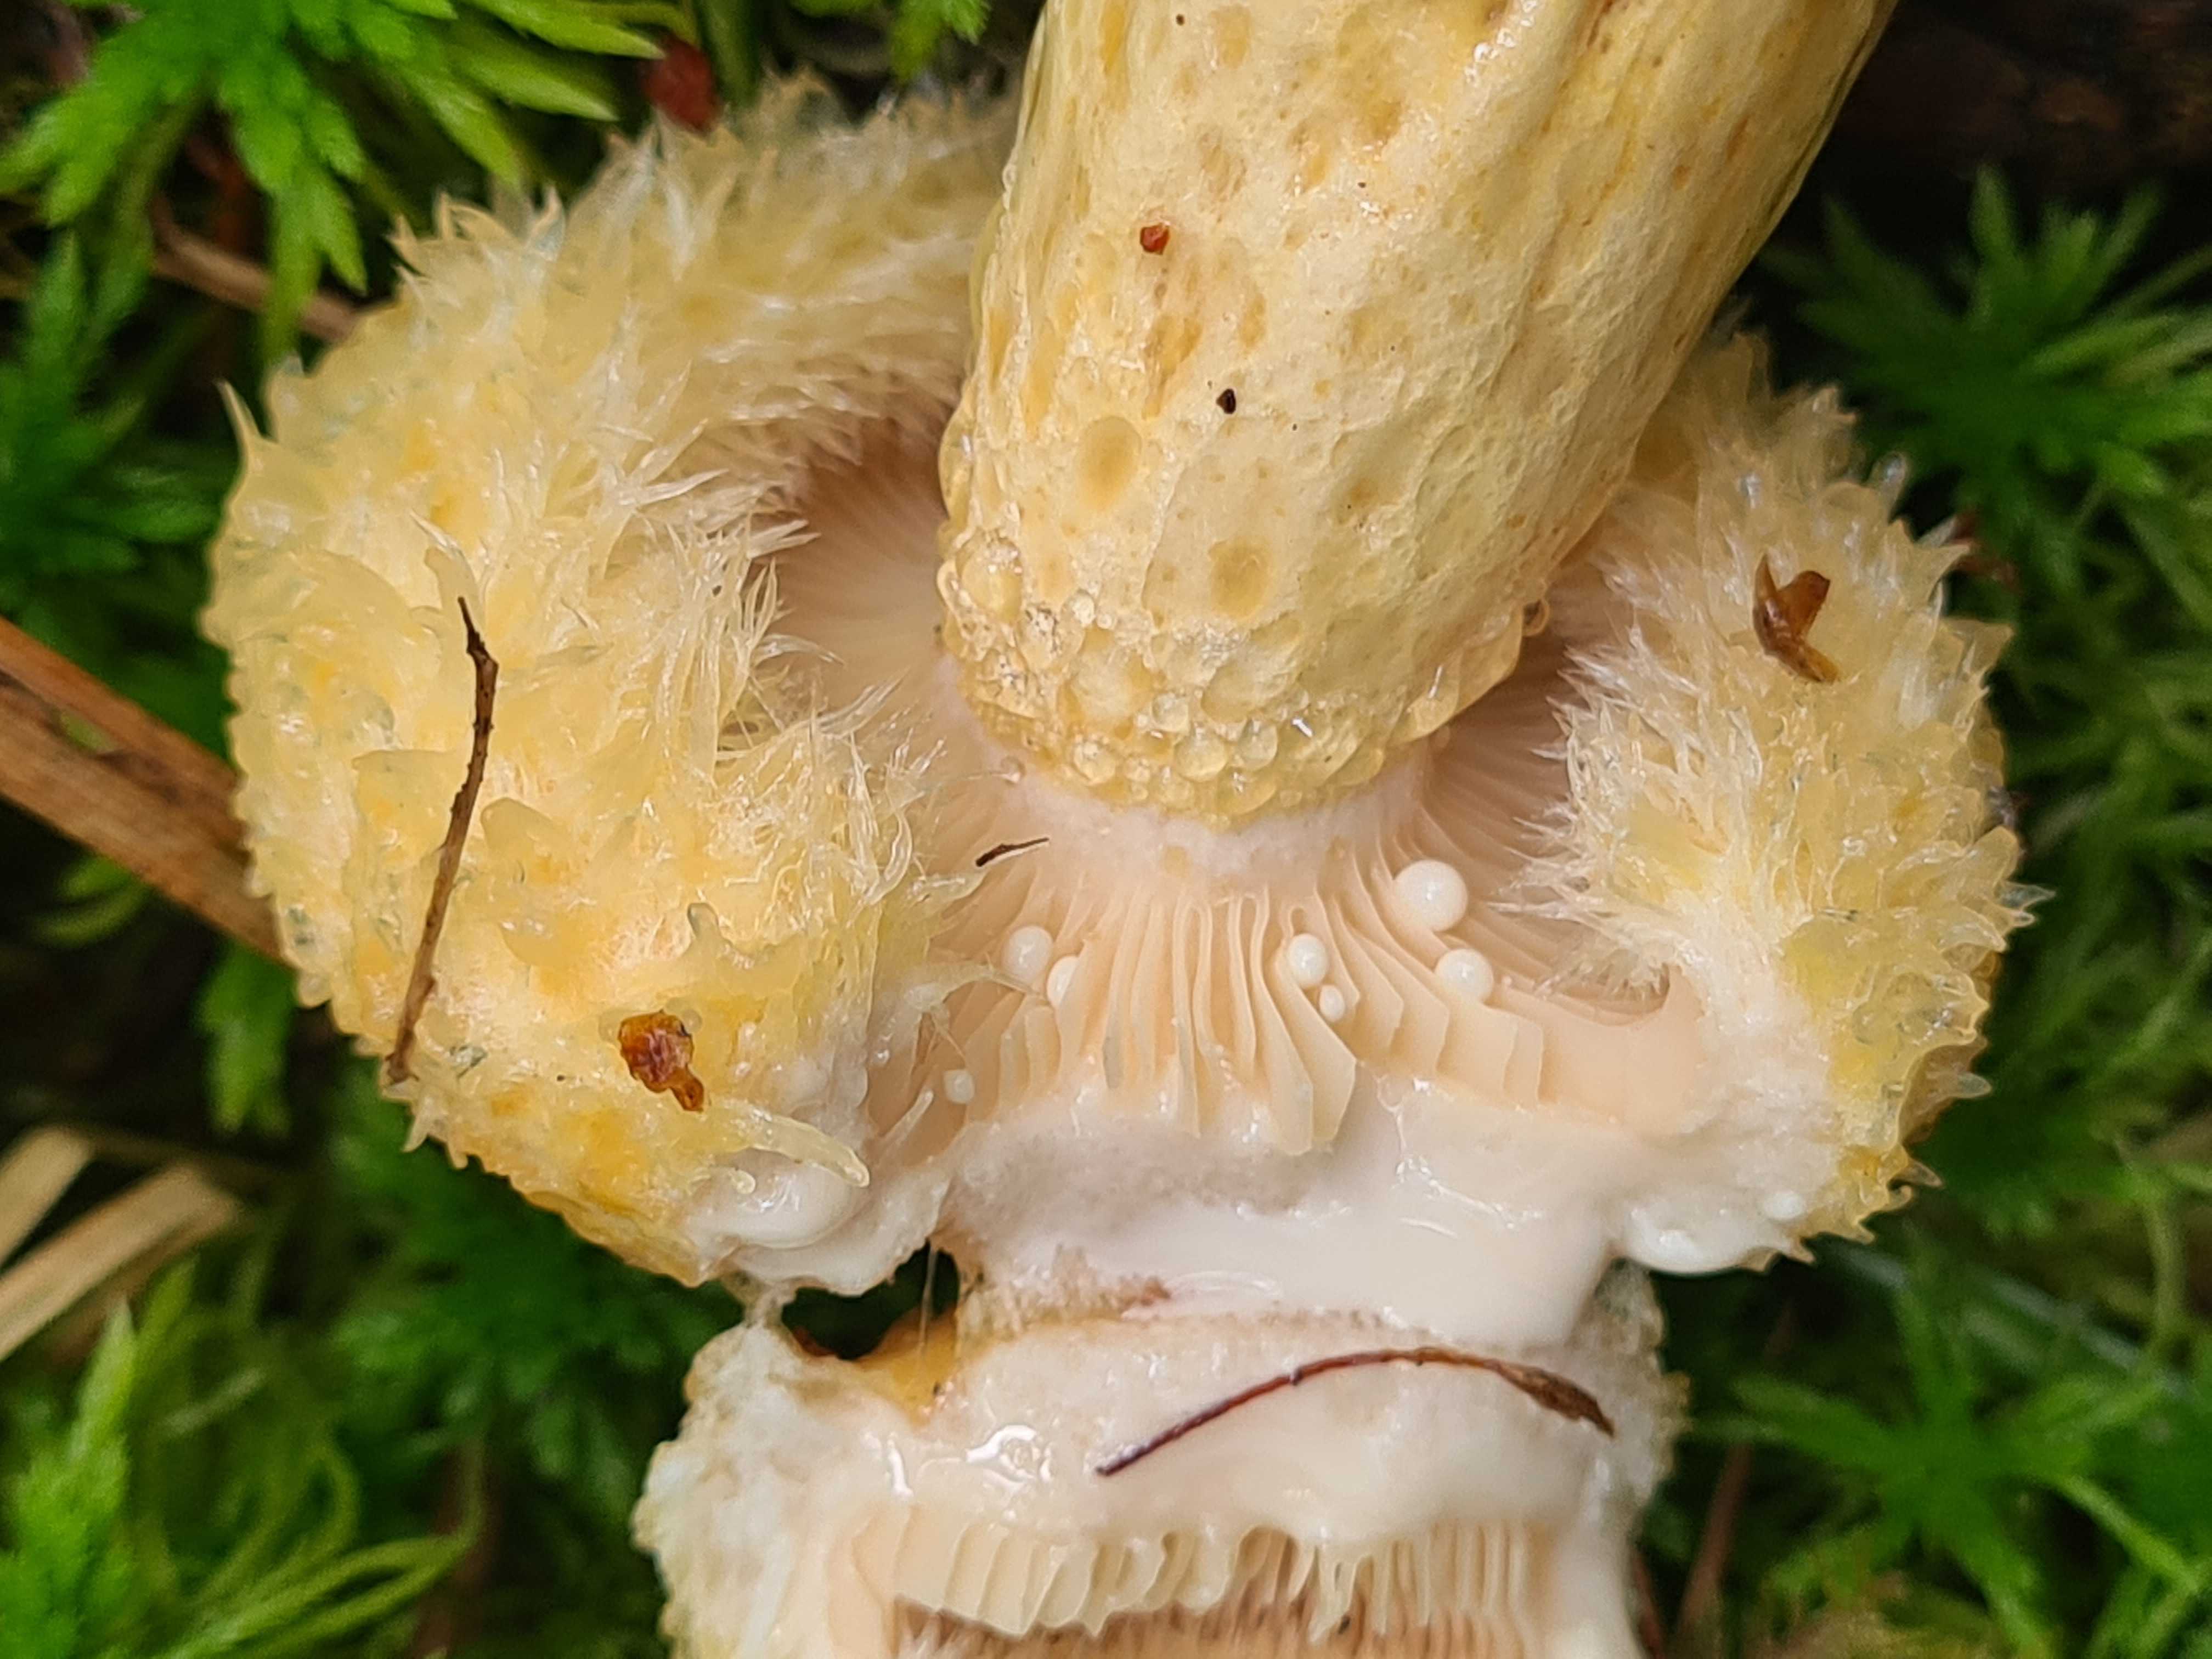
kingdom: Fungi
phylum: Basidiomycota
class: Agaricomycetes
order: Russulales
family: Russulaceae
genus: Lactarius
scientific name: Lactarius repraesentaneus
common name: prægtig mælkehat
